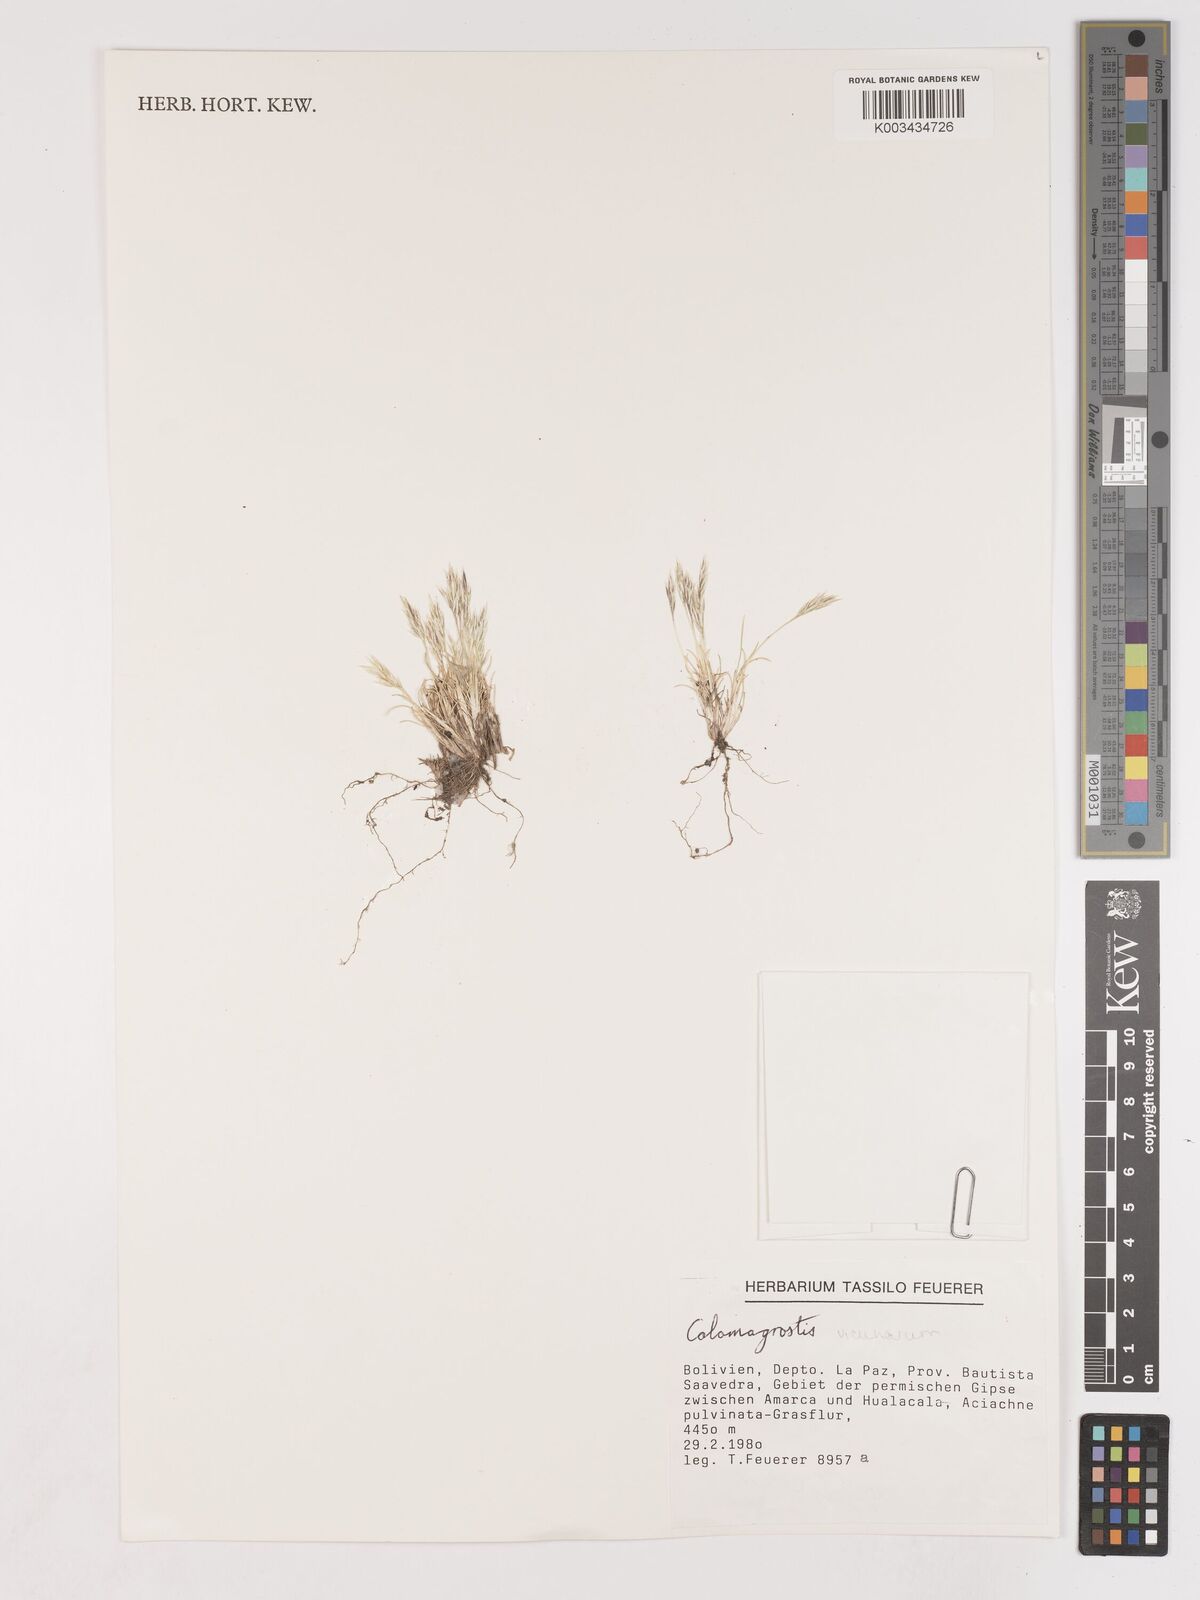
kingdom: Plantae
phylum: Tracheophyta
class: Liliopsida
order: Poales
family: Poaceae
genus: Cinnagrostis
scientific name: Cinnagrostis vicunarum
